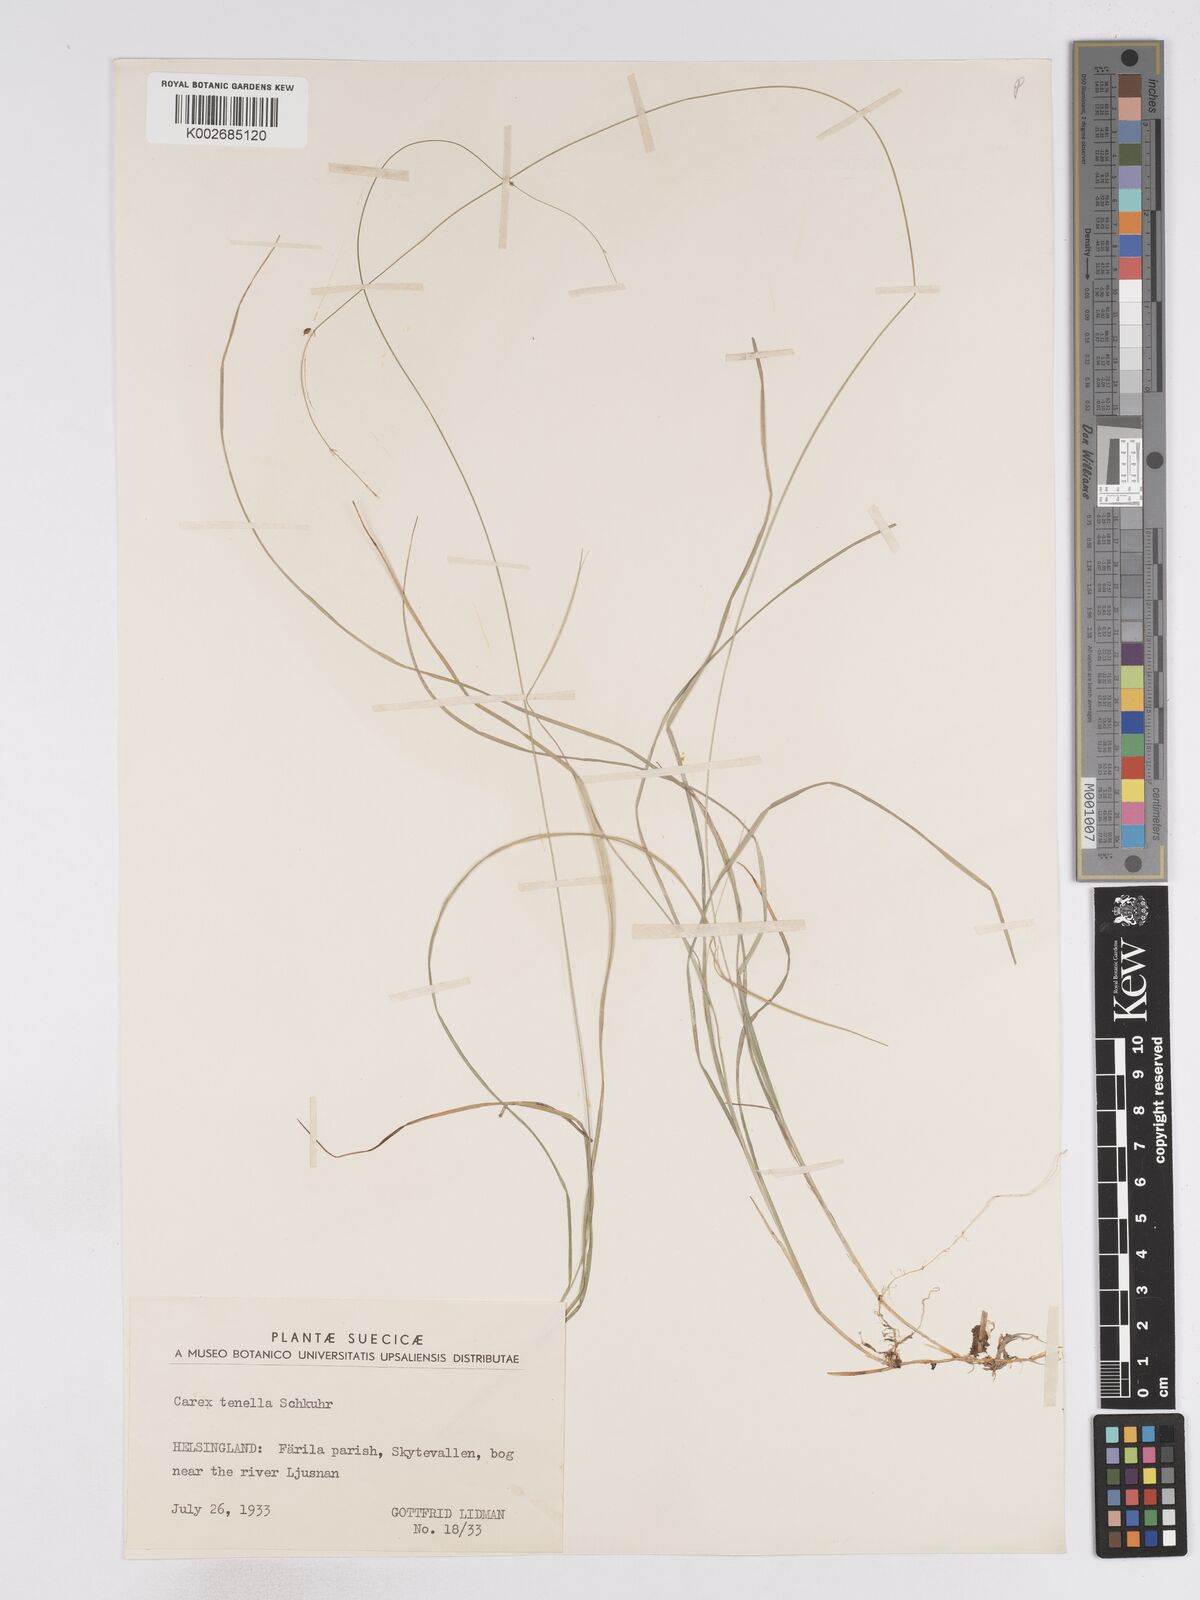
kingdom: Plantae
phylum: Tracheophyta
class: Liliopsida
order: Poales
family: Cyperaceae
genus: Carex
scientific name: Carex disperma
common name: Short-leaved sedge
